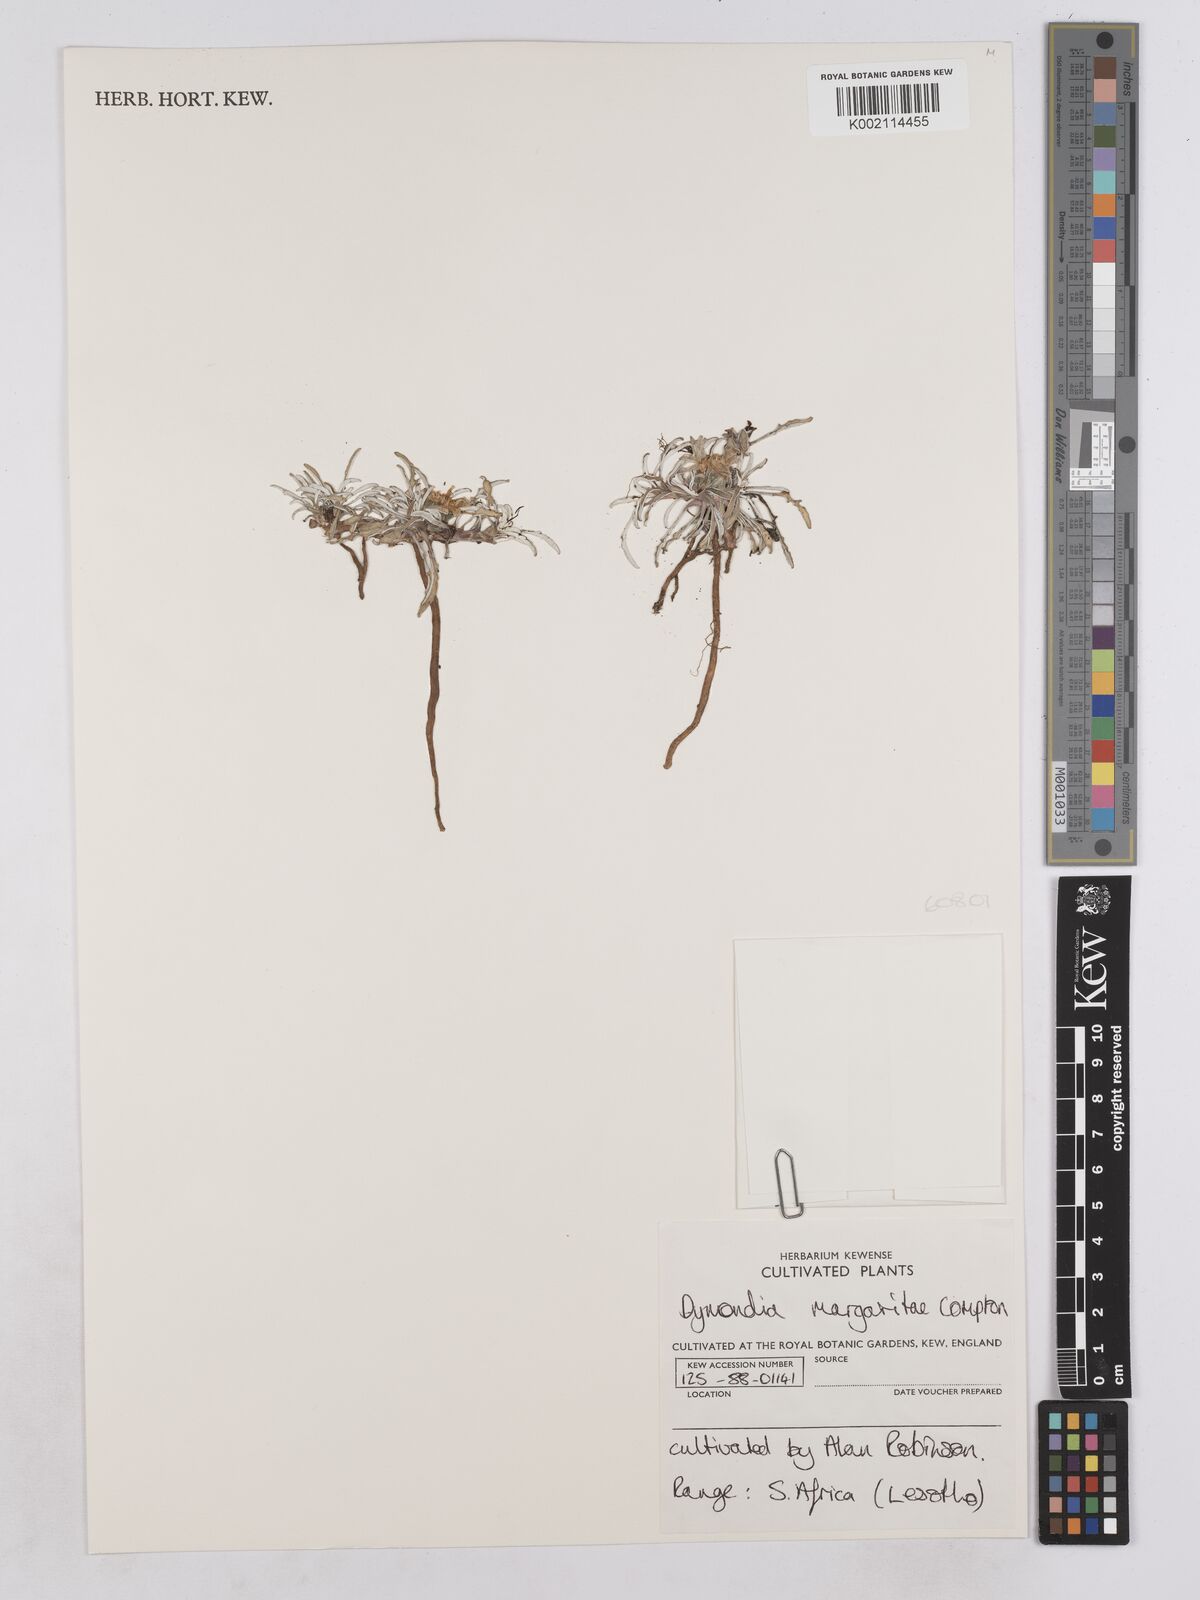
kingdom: Plantae
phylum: Tracheophyta
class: Magnoliopsida
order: Asterales
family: Asteraceae
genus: Dymondia
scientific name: Dymondia margaretae
